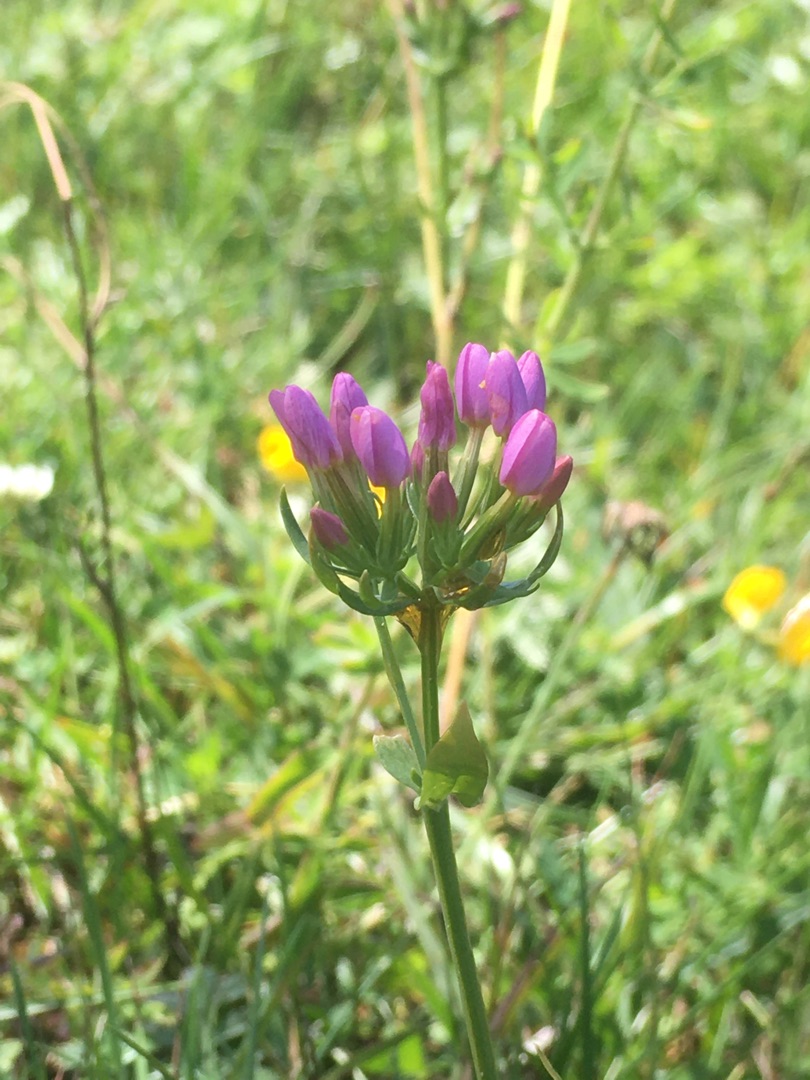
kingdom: Plantae
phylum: Tracheophyta
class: Magnoliopsida
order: Gentianales
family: Gentianaceae
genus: Centaurium
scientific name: Centaurium erythraea
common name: Mark-tusindgylden
